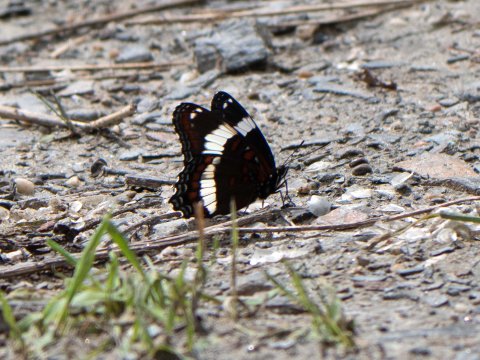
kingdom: Animalia
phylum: Arthropoda
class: Insecta
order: Lepidoptera
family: Nymphalidae
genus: Limenitis
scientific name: Limenitis arthemis
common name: Red-spotted Admiral
